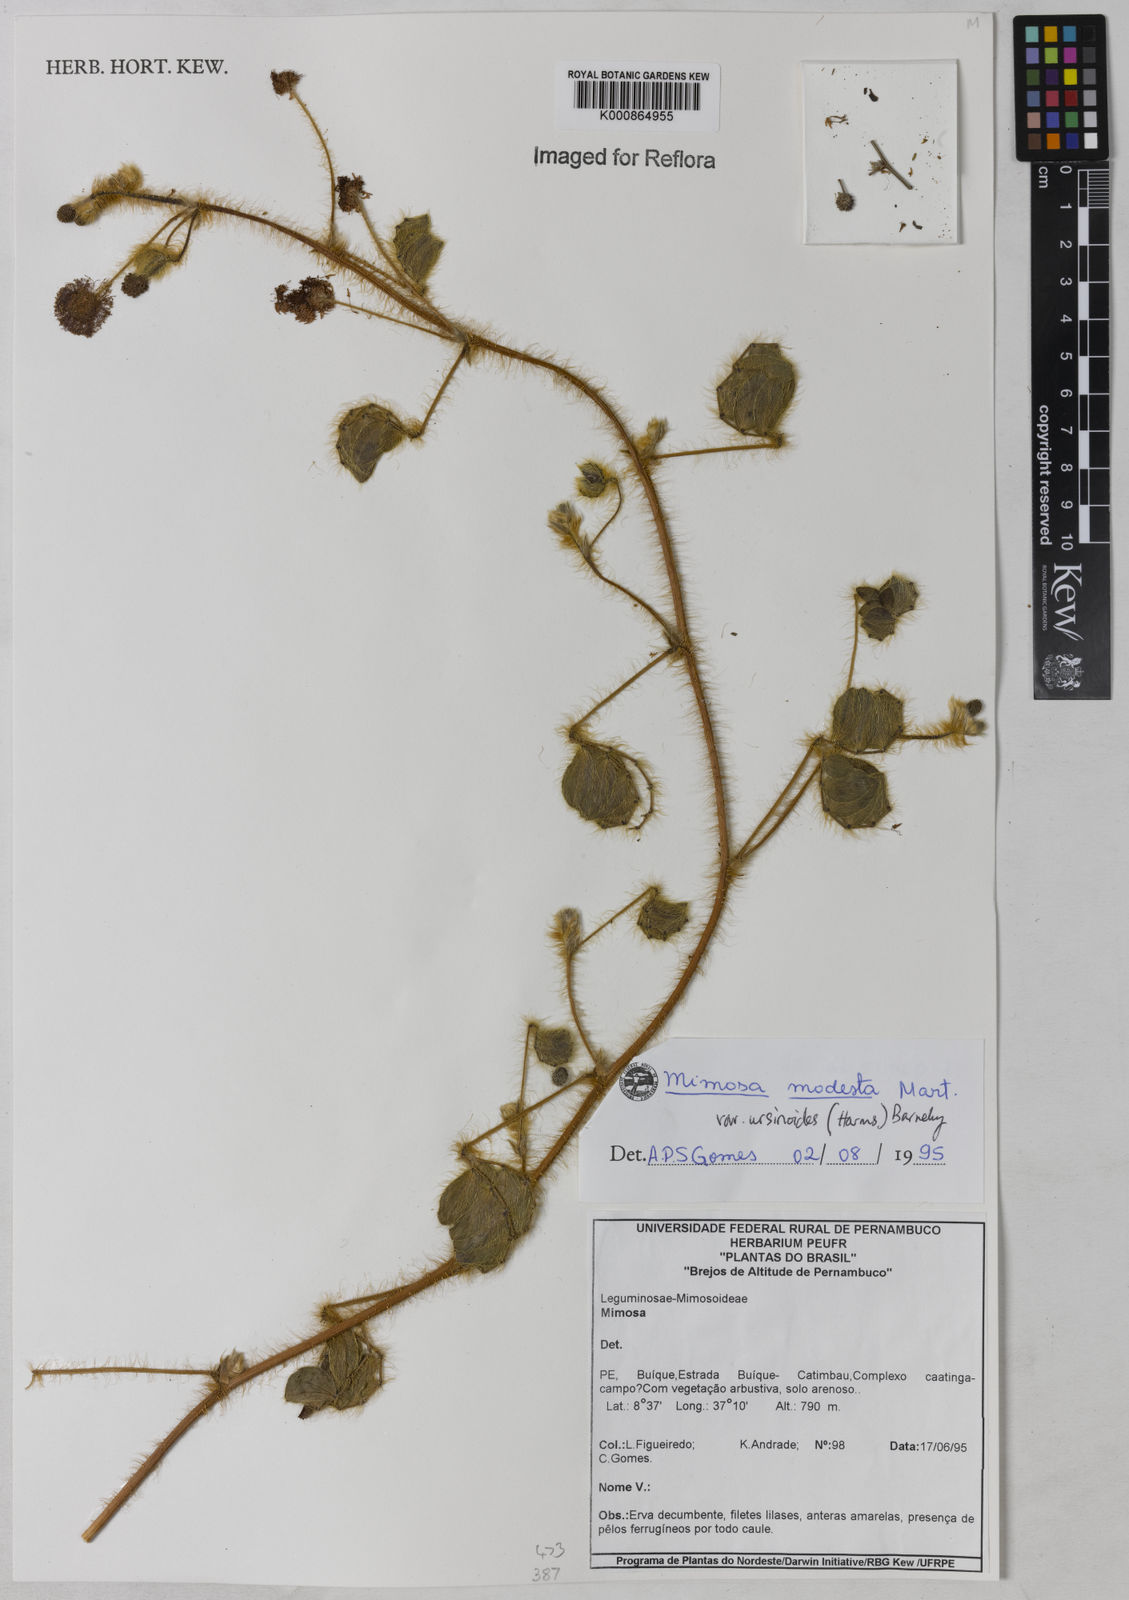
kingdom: Plantae
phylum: Tracheophyta
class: Magnoliopsida
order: Fabales
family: Fabaceae
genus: Mimosa
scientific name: Mimosa modesta
